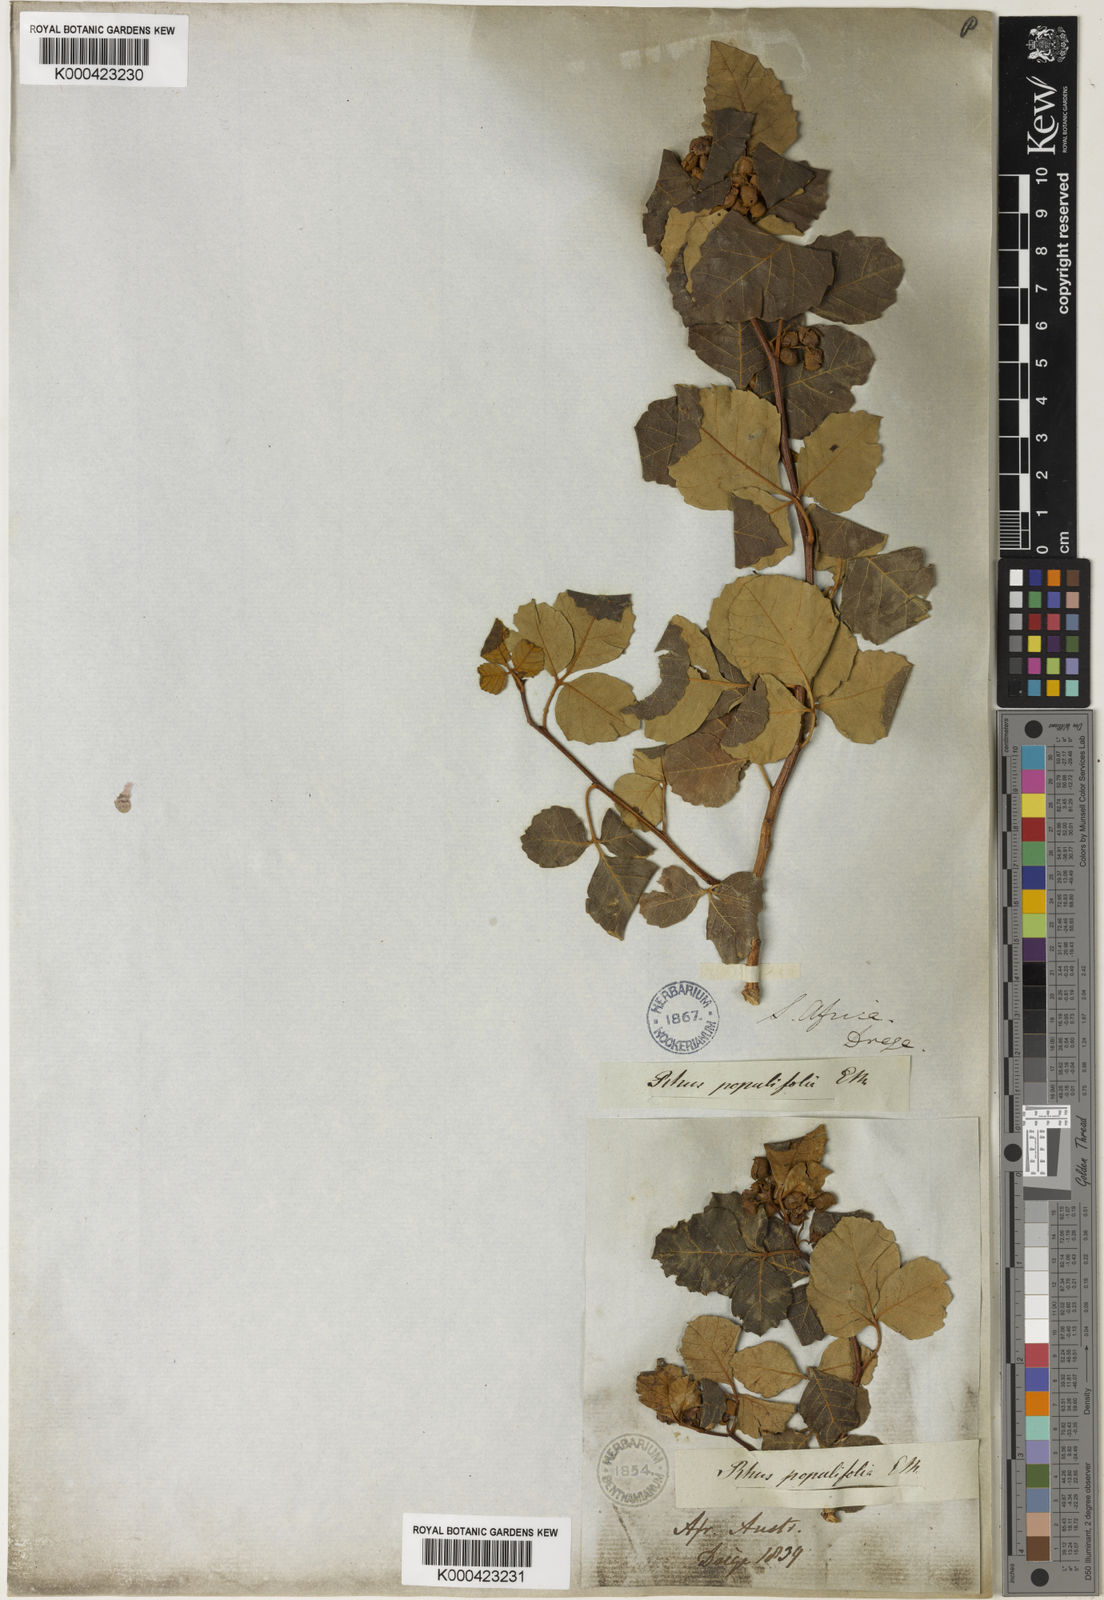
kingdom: Plantae
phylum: Tracheophyta
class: Magnoliopsida
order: Sapindales
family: Anacardiaceae
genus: Searsia
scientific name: Searsia populifolia
